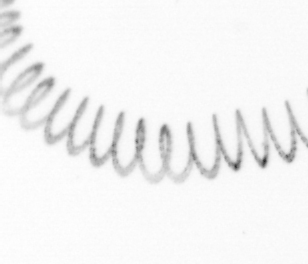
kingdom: Chromista
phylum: Ochrophyta
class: Bacillariophyceae
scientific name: Bacillariophyceae
